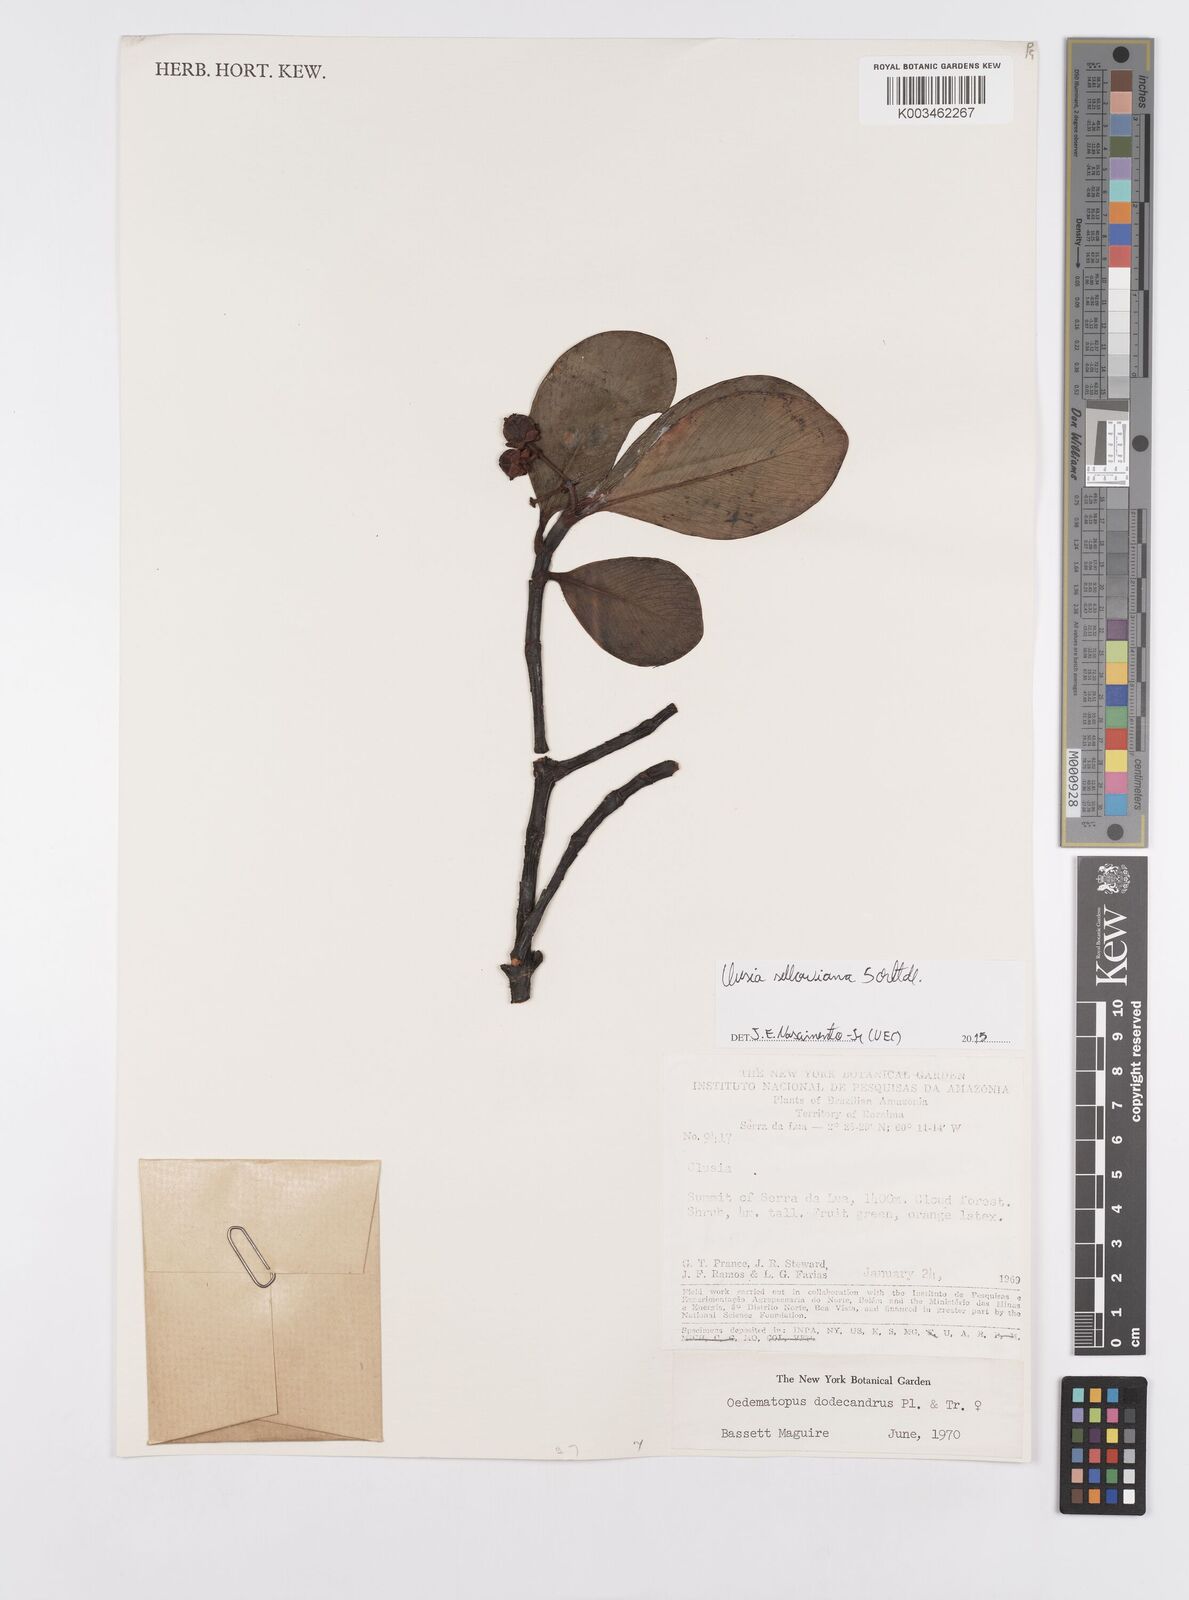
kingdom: Plantae
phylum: Tracheophyta
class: Magnoliopsida
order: Malpighiales
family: Clusiaceae
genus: Clusia
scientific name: Clusia sellowiana
